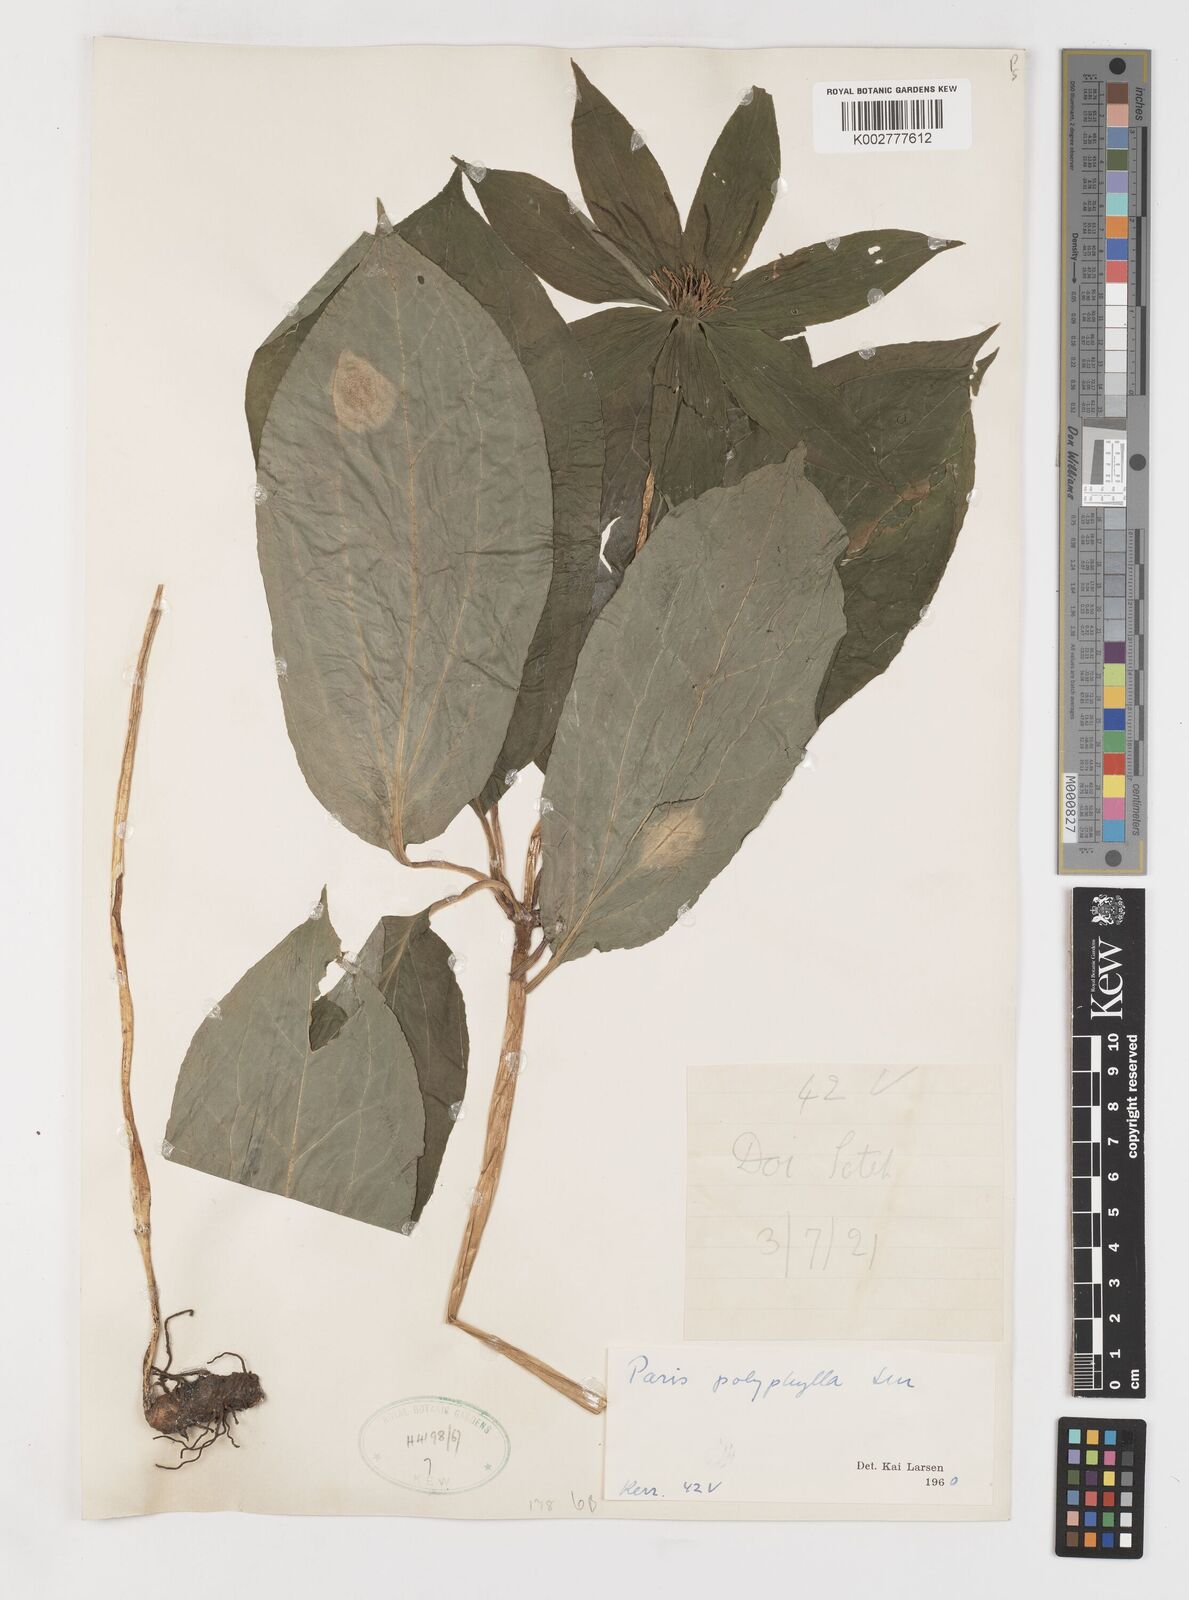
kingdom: Plantae
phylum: Tracheophyta
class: Liliopsida
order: Liliales
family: Melanthiaceae
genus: Paris
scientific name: Paris polyphylla
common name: Love apple
